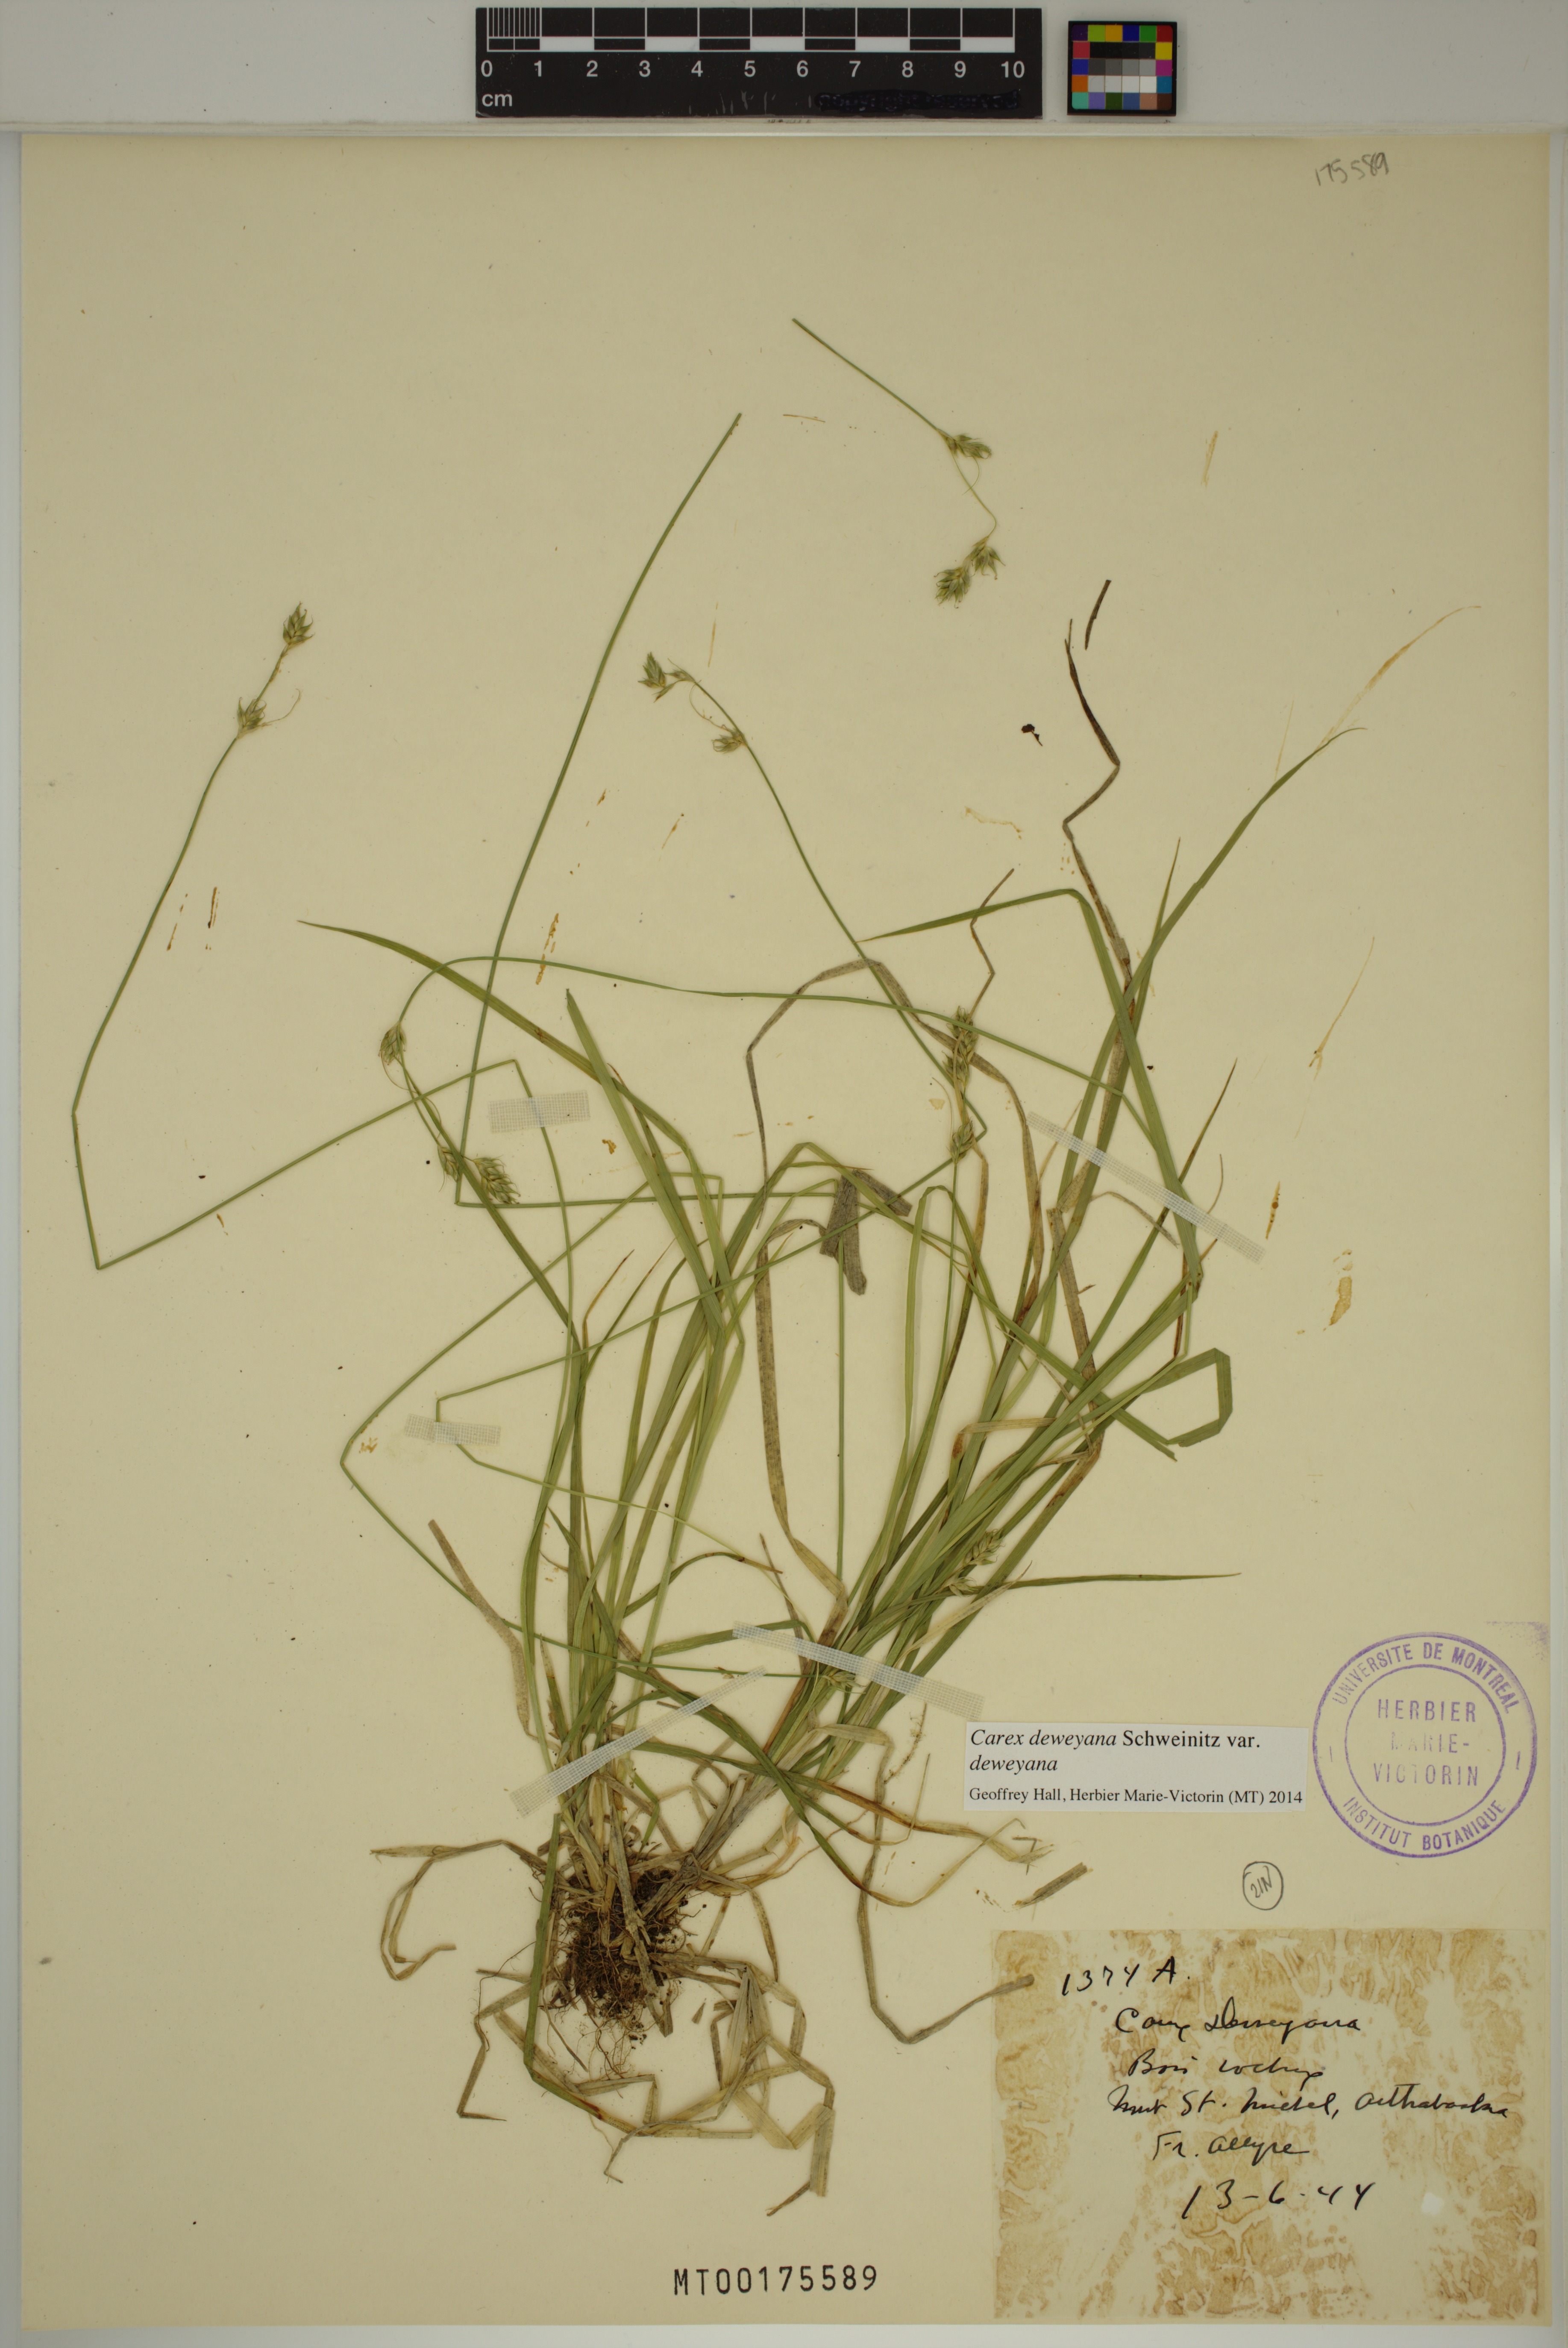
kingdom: Plantae
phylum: Tracheophyta
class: Liliopsida
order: Poales
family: Cyperaceae
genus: Carex
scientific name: Carex deweyana
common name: Dewey's sedge
